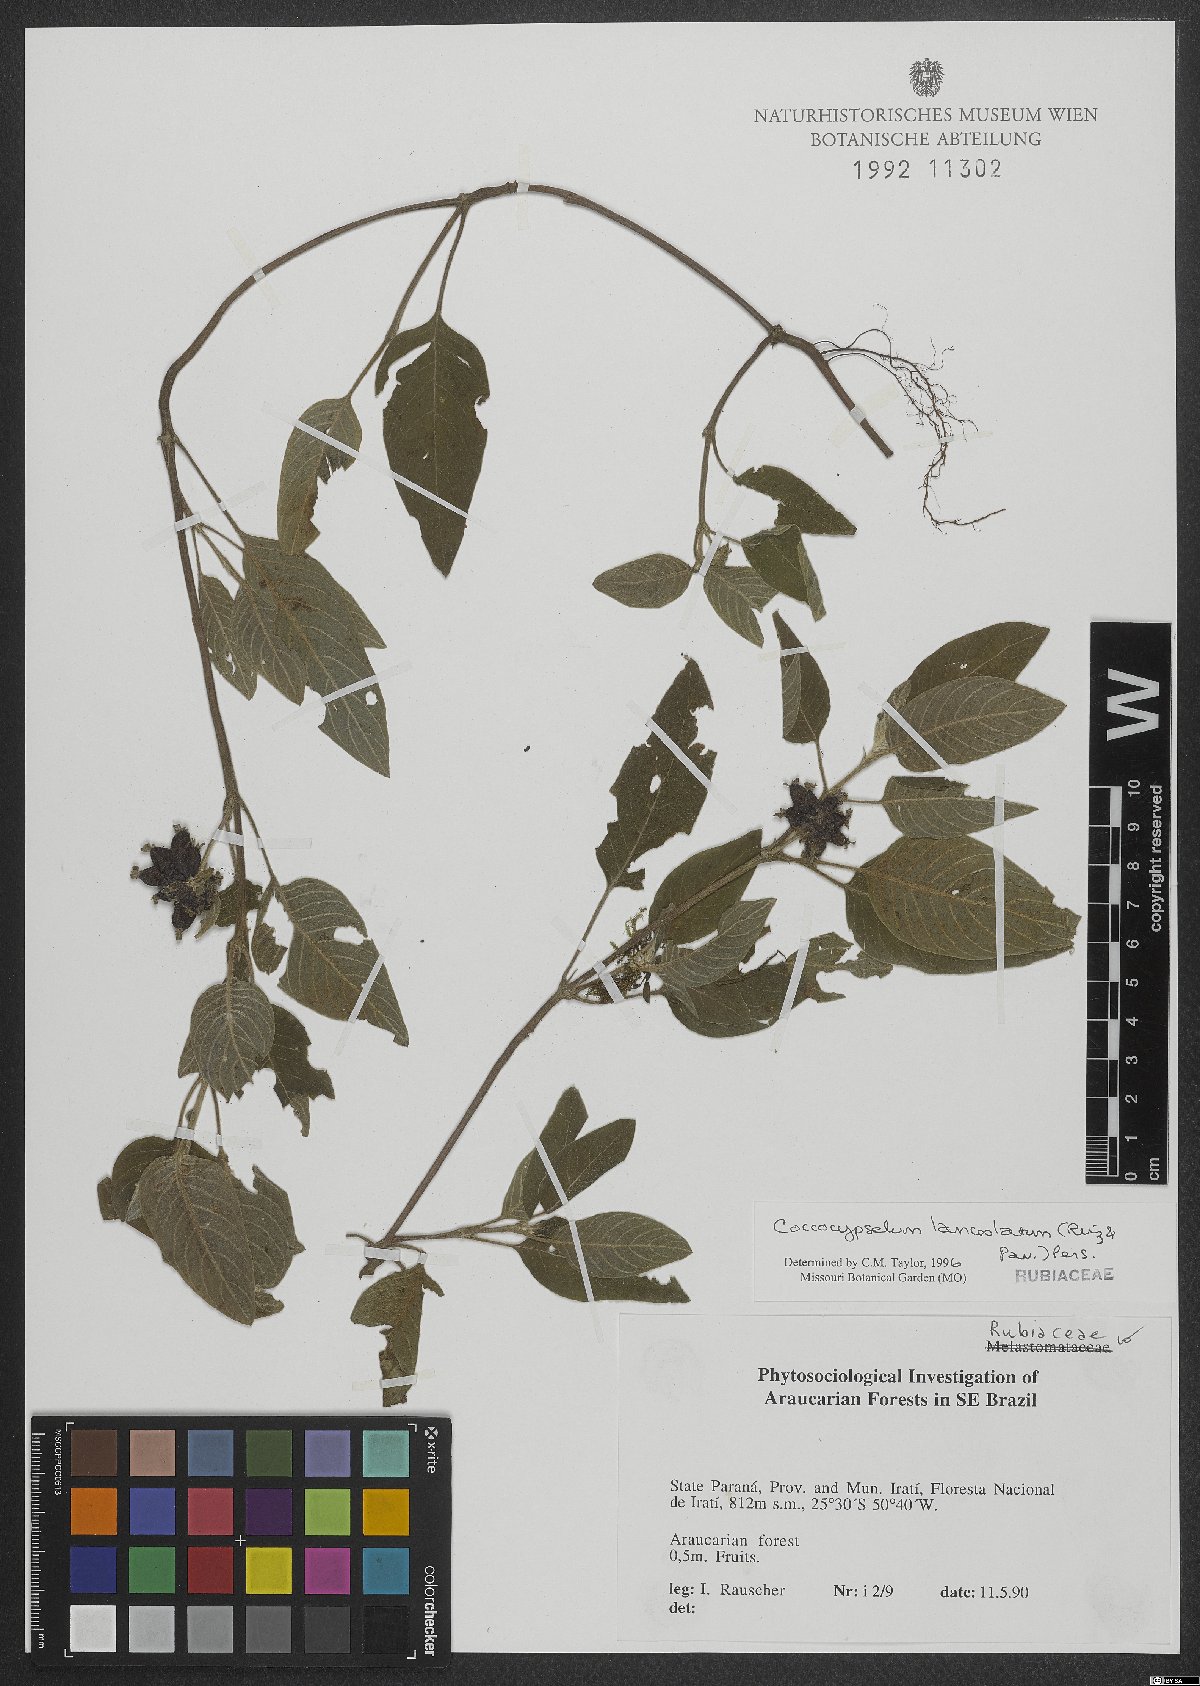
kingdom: Plantae
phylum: Tracheophyta
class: Magnoliopsida
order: Gentianales
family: Rubiaceae
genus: Coccocypselum
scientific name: Coccocypselum lanceolatum
